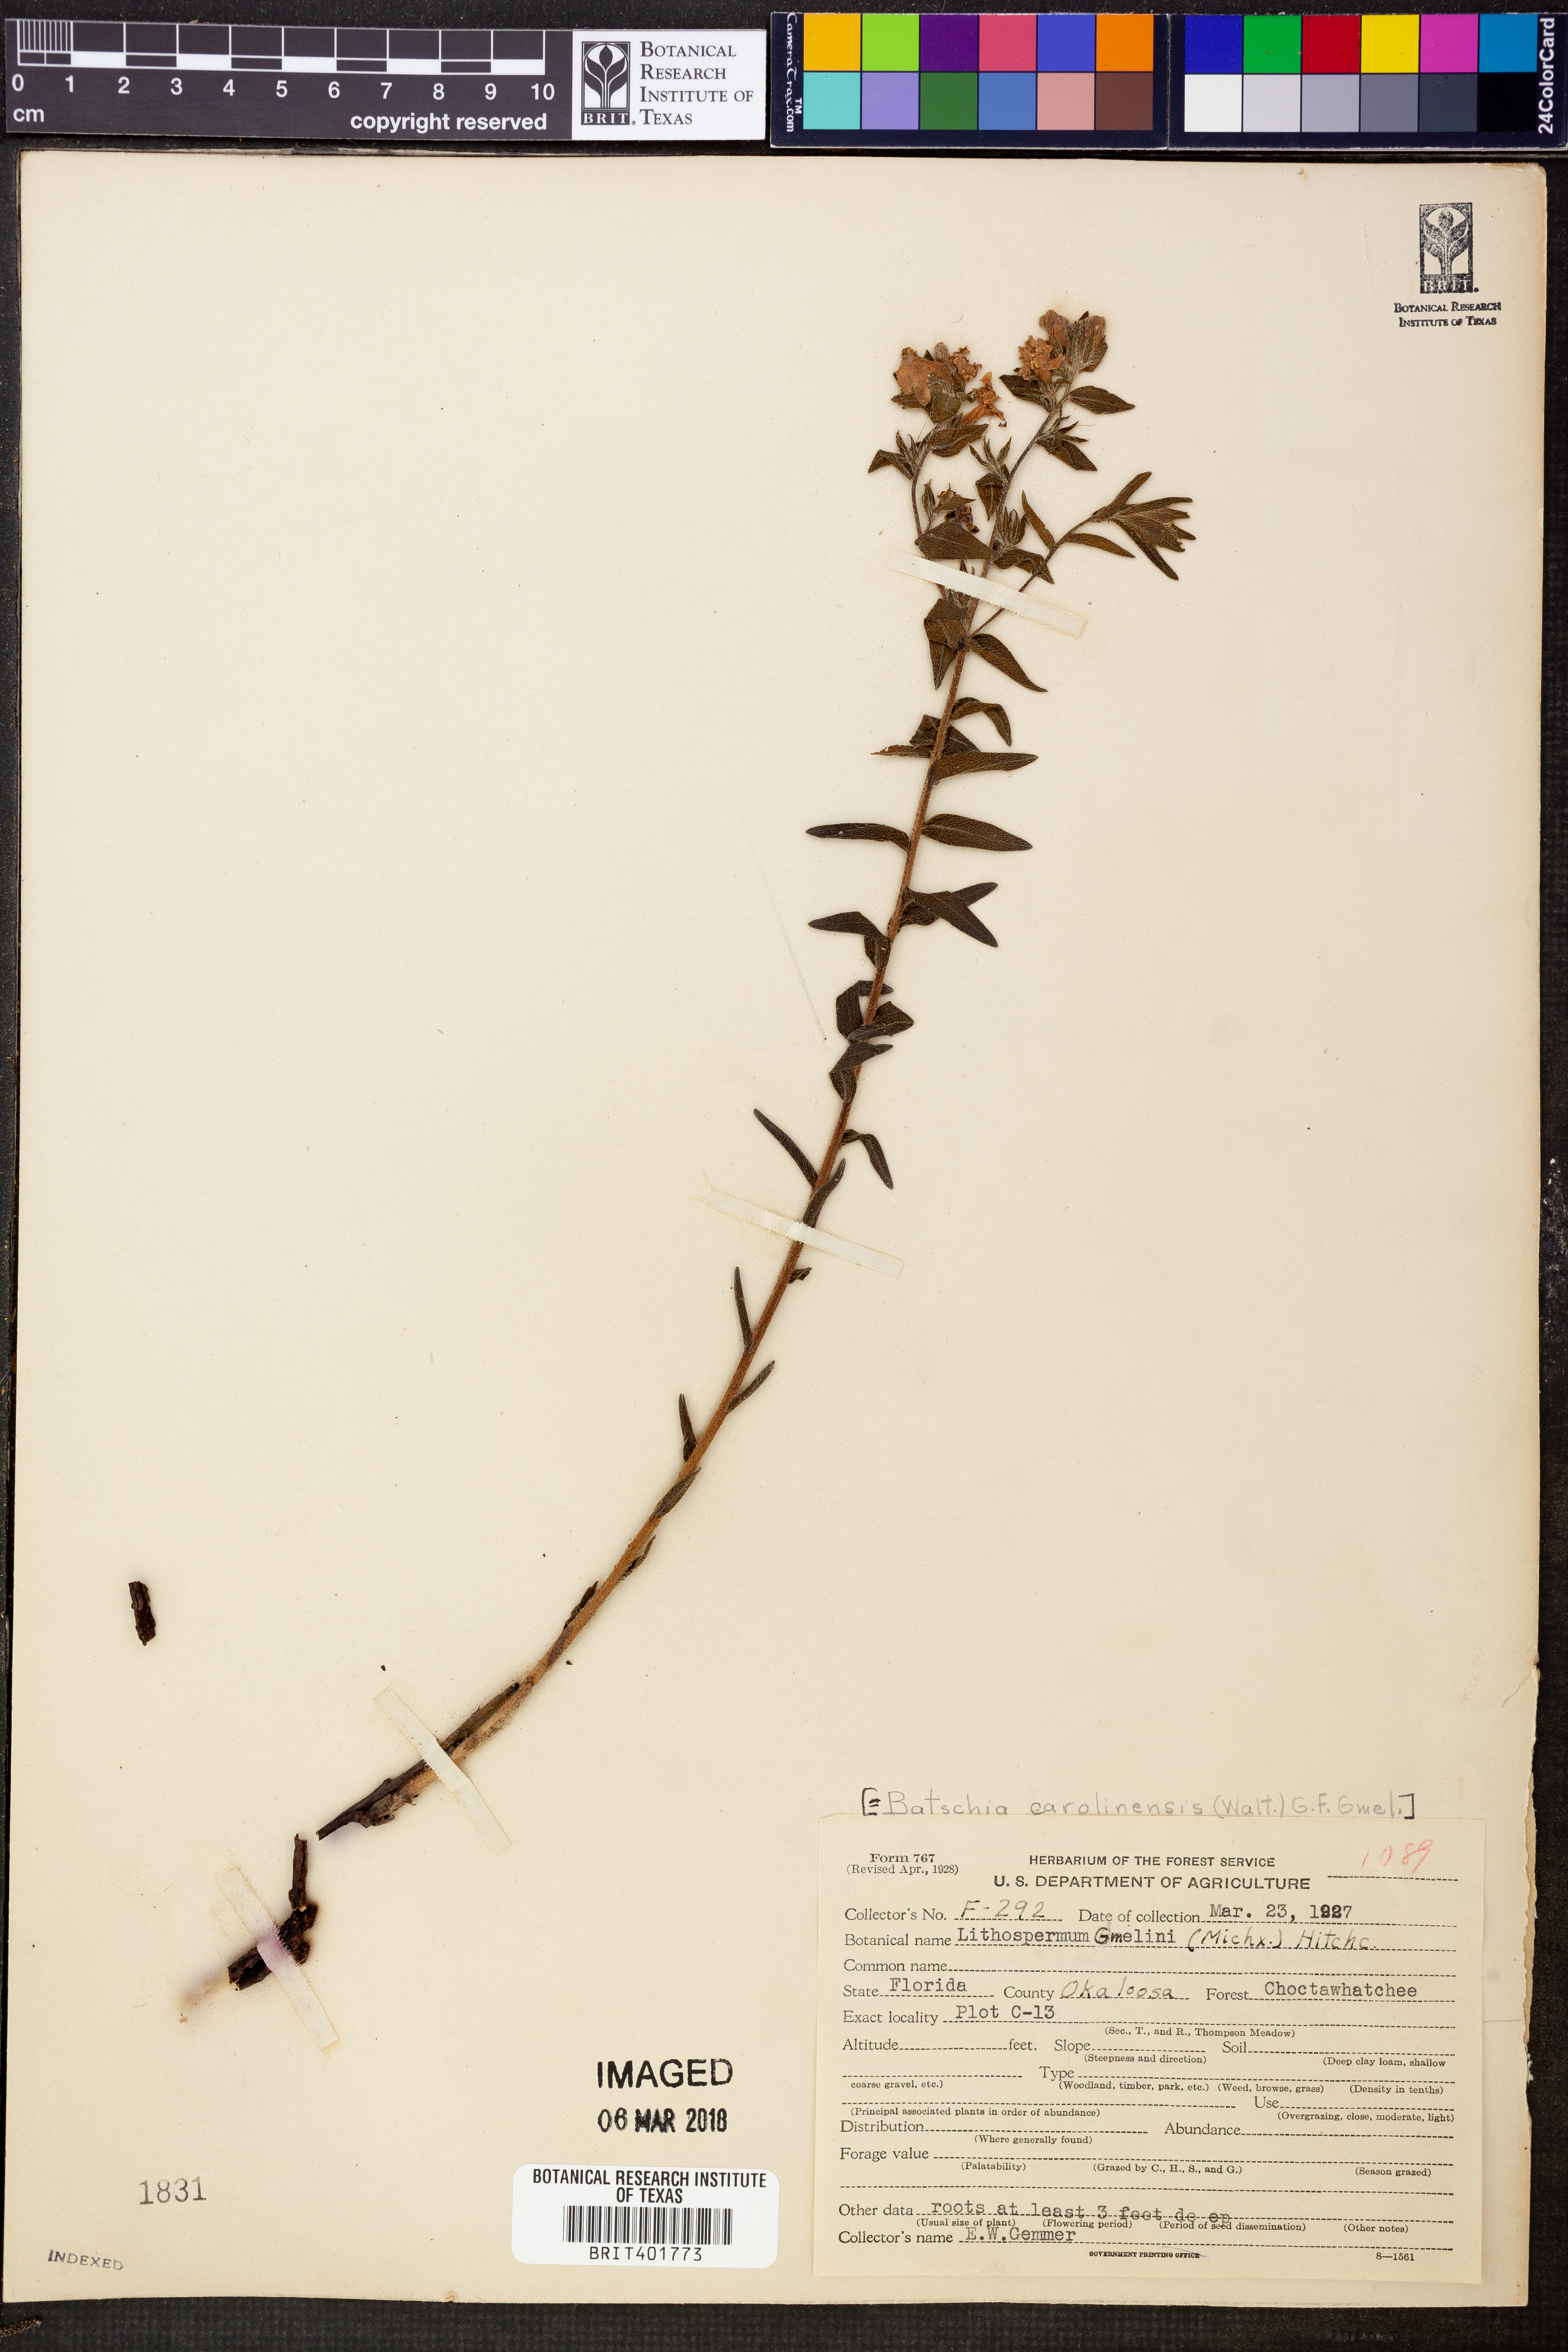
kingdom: Plantae
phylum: Tracheophyta
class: Magnoliopsida
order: Boraginales
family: Boraginaceae
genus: Lithospermum
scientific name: Lithospermum caroliniense
